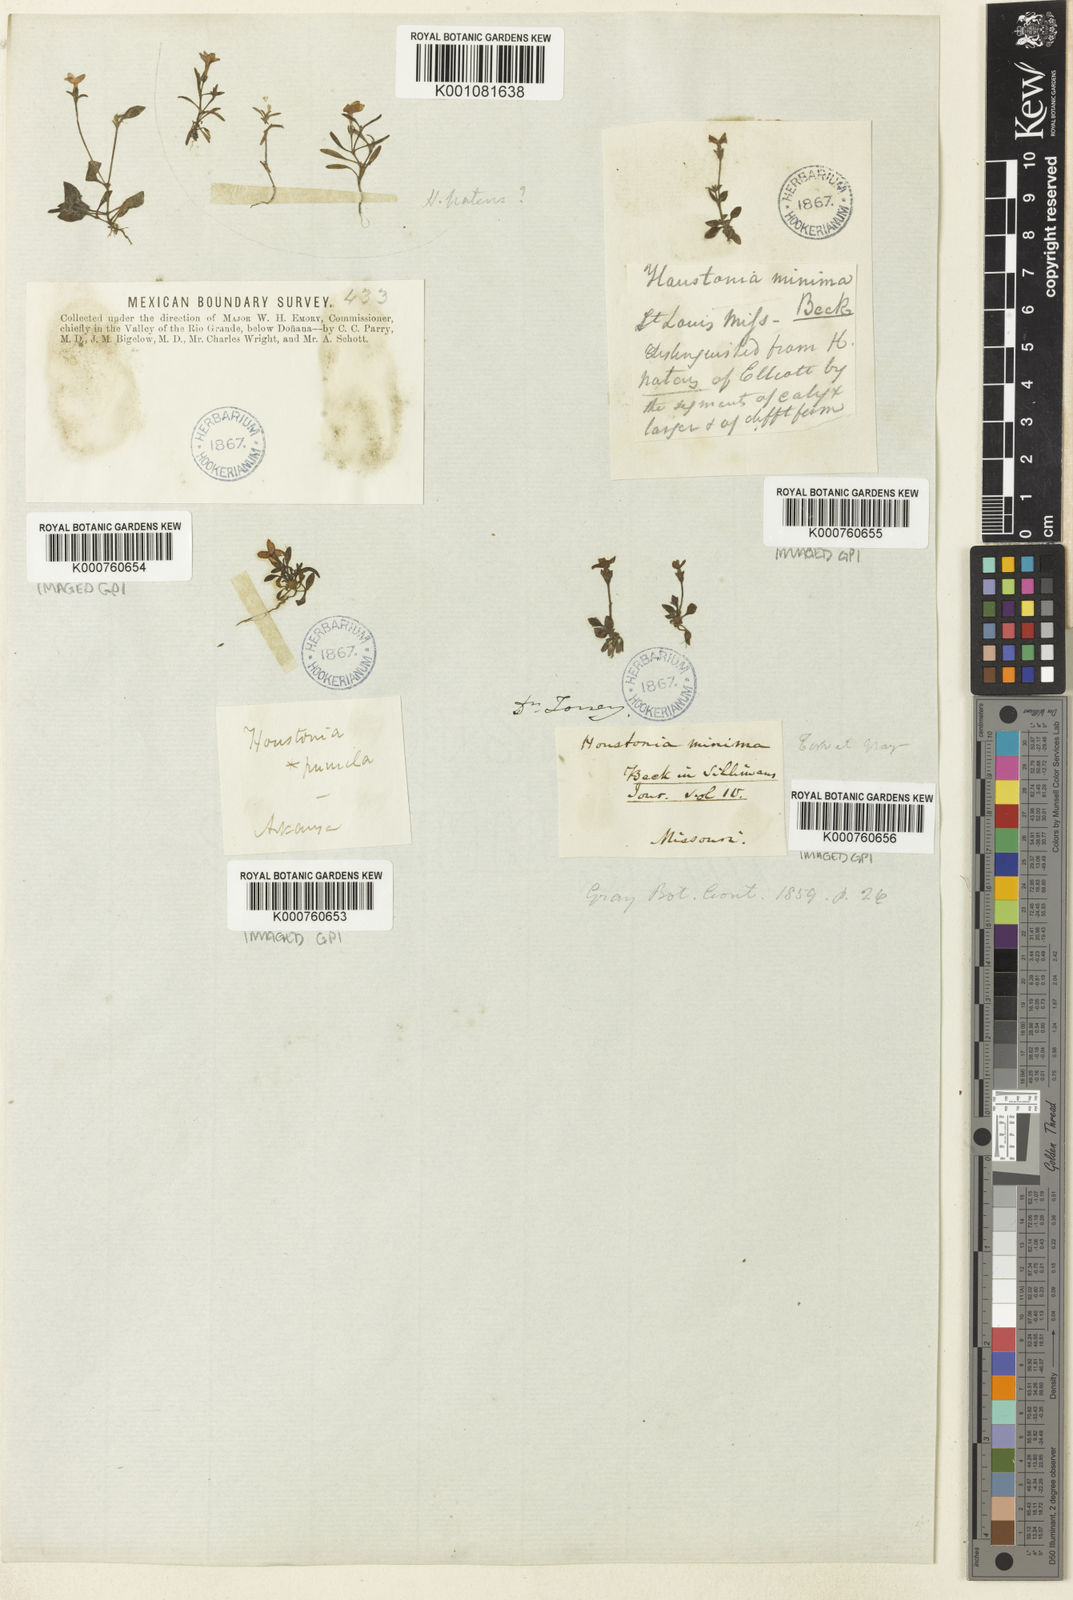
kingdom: Plantae
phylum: Tracheophyta
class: Magnoliopsida
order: Gentianales
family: Rubiaceae
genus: Houstonia
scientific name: Houstonia
